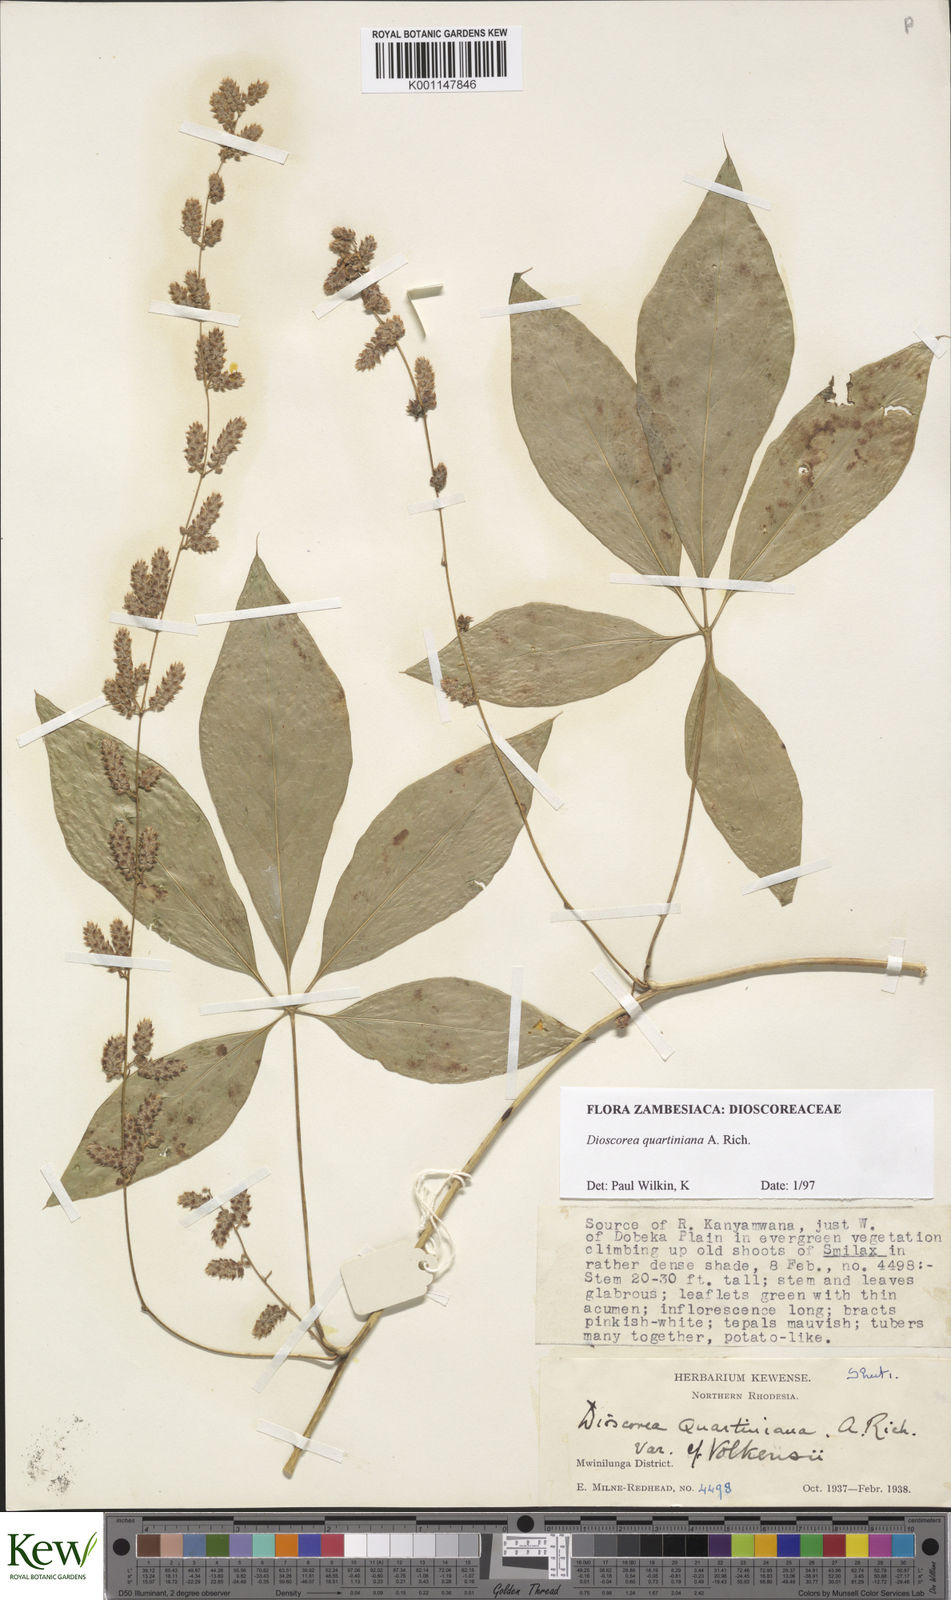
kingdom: Plantae
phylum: Tracheophyta
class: Liliopsida
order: Dioscoreales
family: Dioscoreaceae
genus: Dioscorea
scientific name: Dioscorea quartiniana
